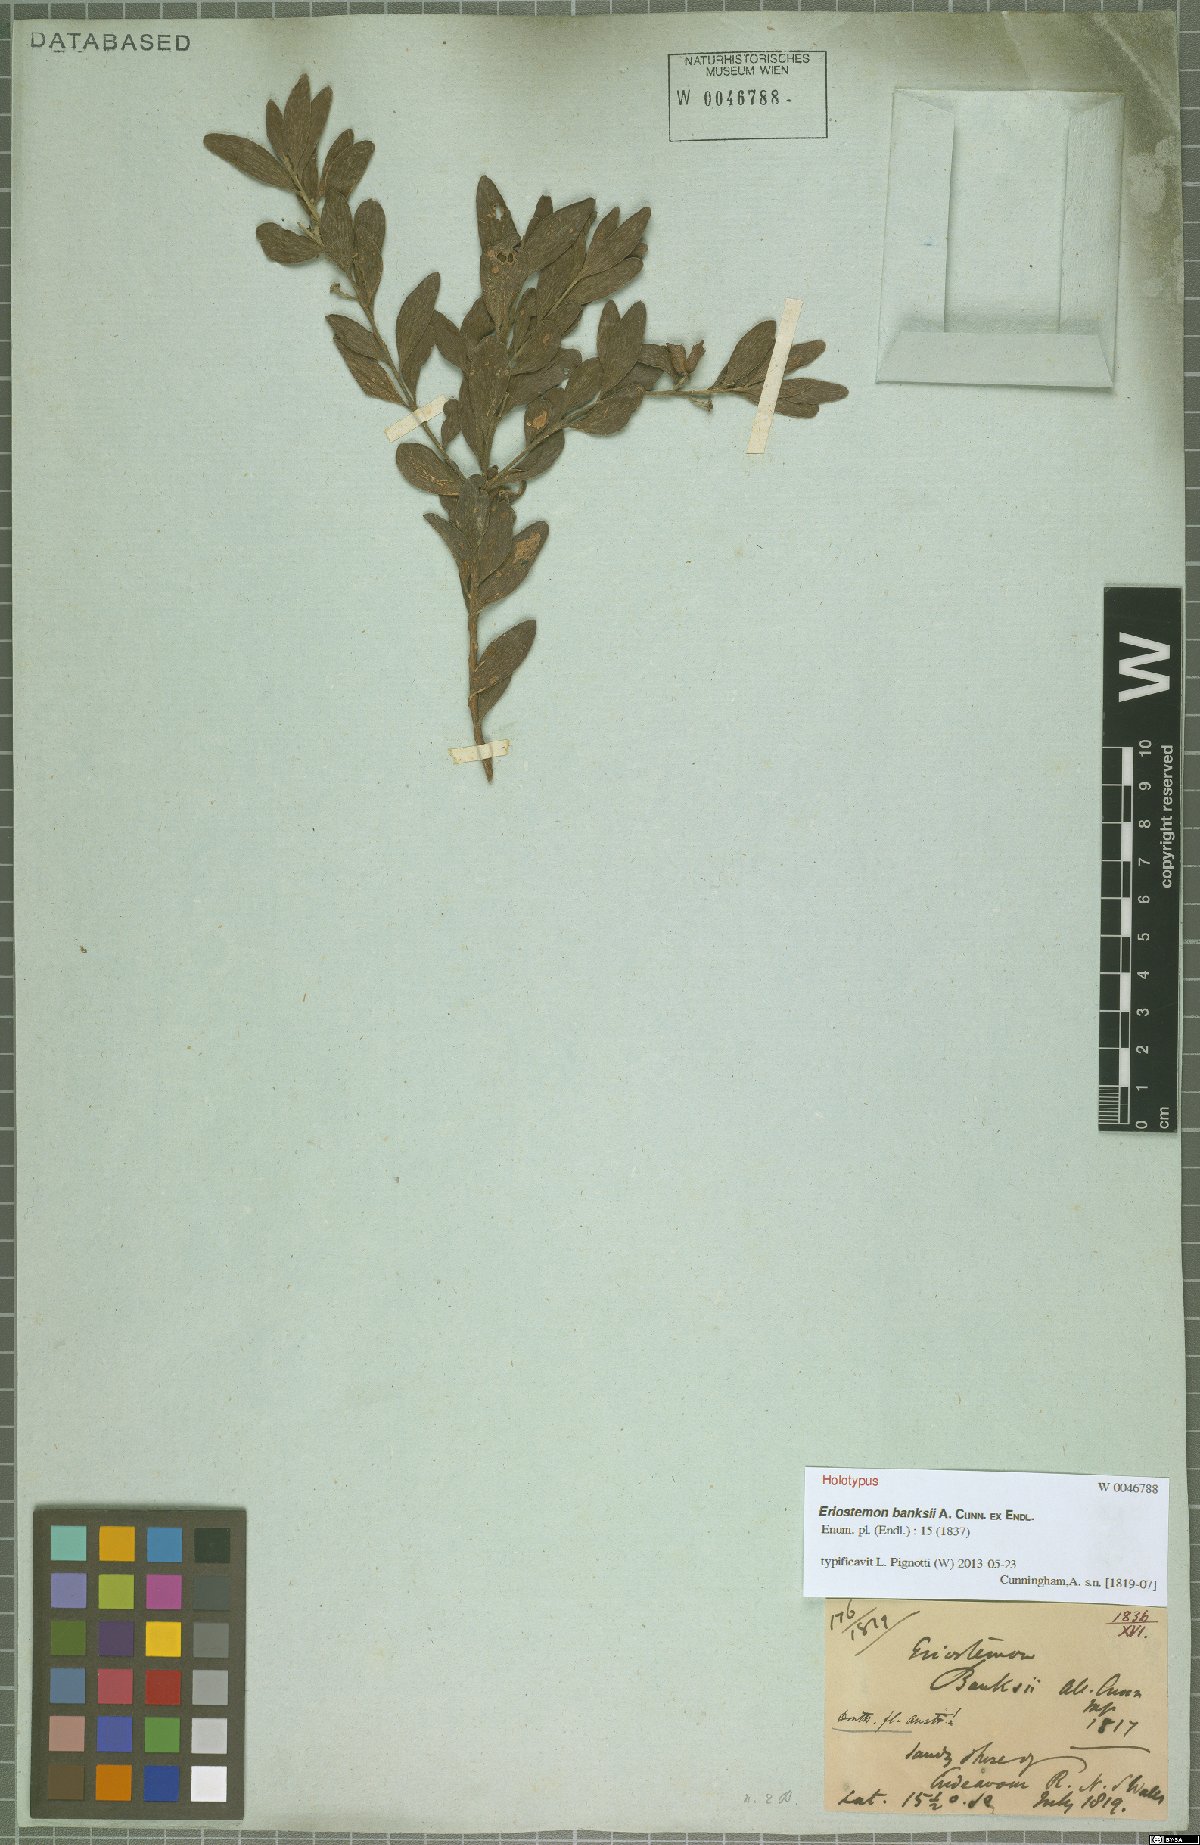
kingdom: Plantae
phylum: Tracheophyta
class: Magnoliopsida
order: Sapindales
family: Rutaceae
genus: Eriostemon
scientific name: Eriostemon banksii
